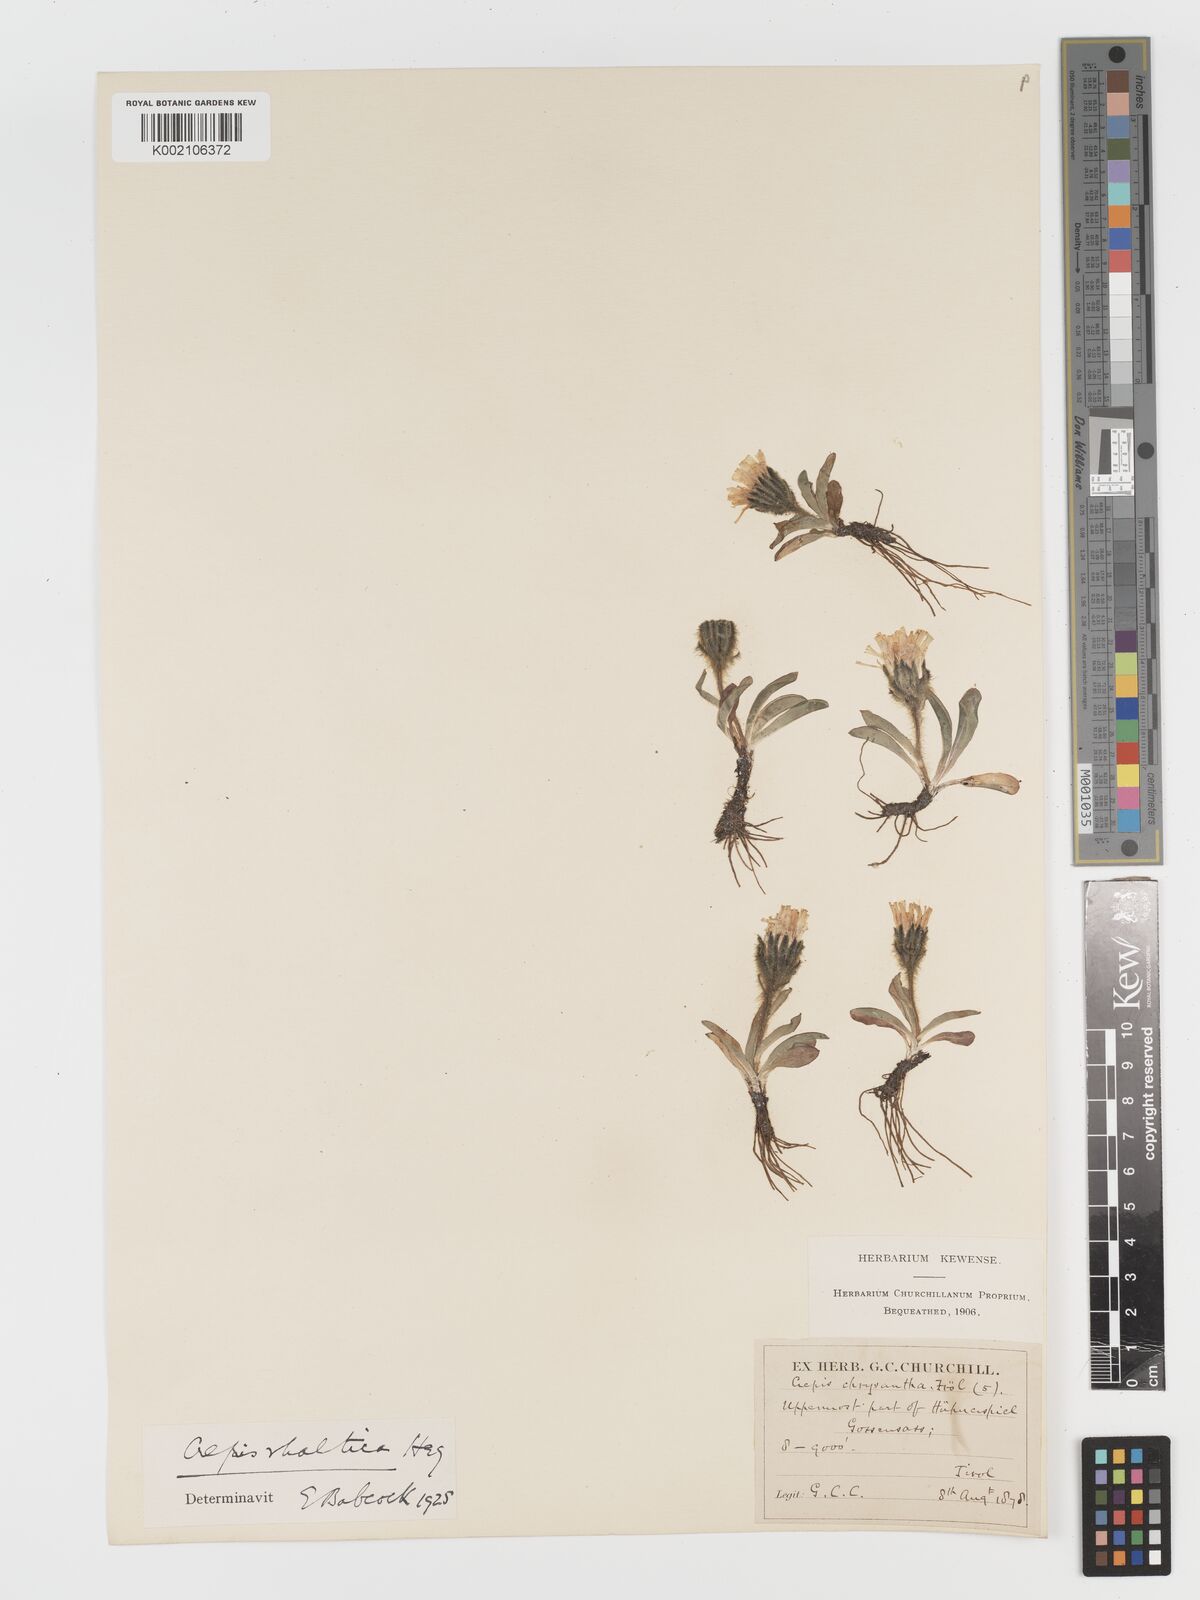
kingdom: Plantae
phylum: Tracheophyta
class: Magnoliopsida
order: Asterales
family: Asteraceae
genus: Crepis
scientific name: Crepis
